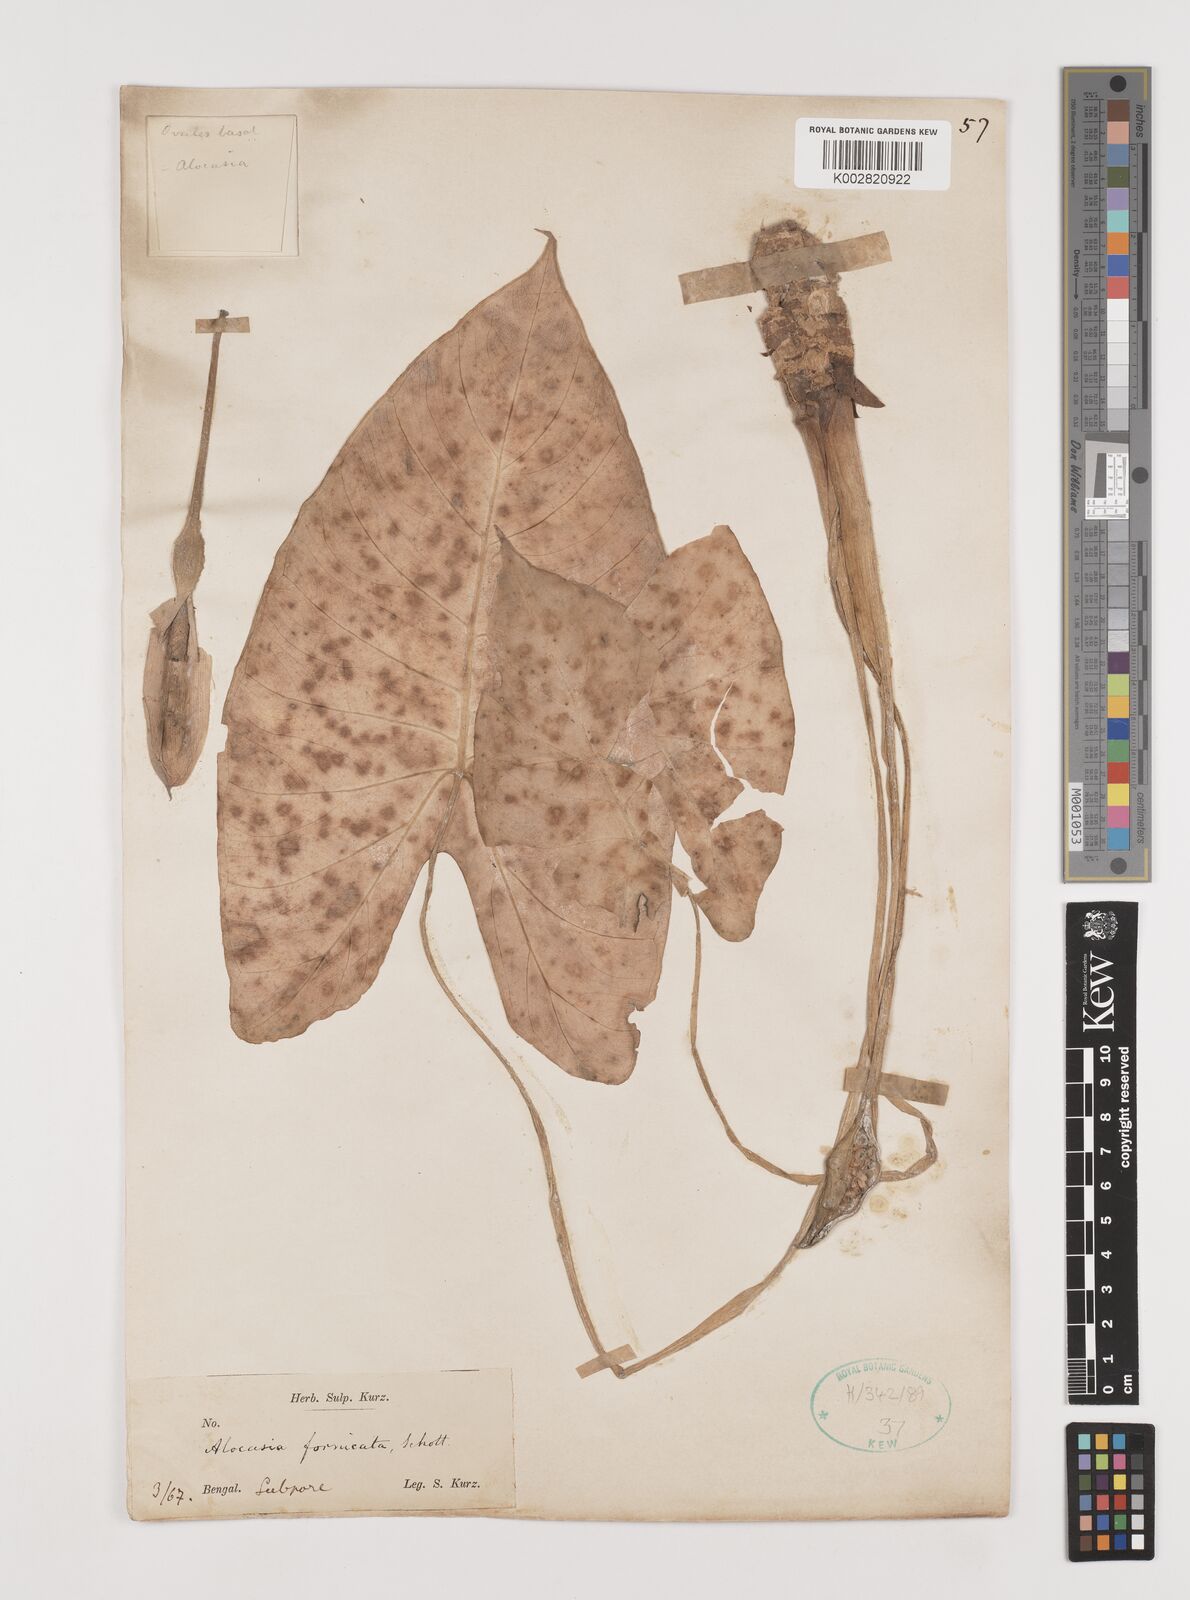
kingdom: Plantae
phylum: Tracheophyta
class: Liliopsida
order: Alismatales
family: Araceae
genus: Alocasia
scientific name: Alocasia fornicata
